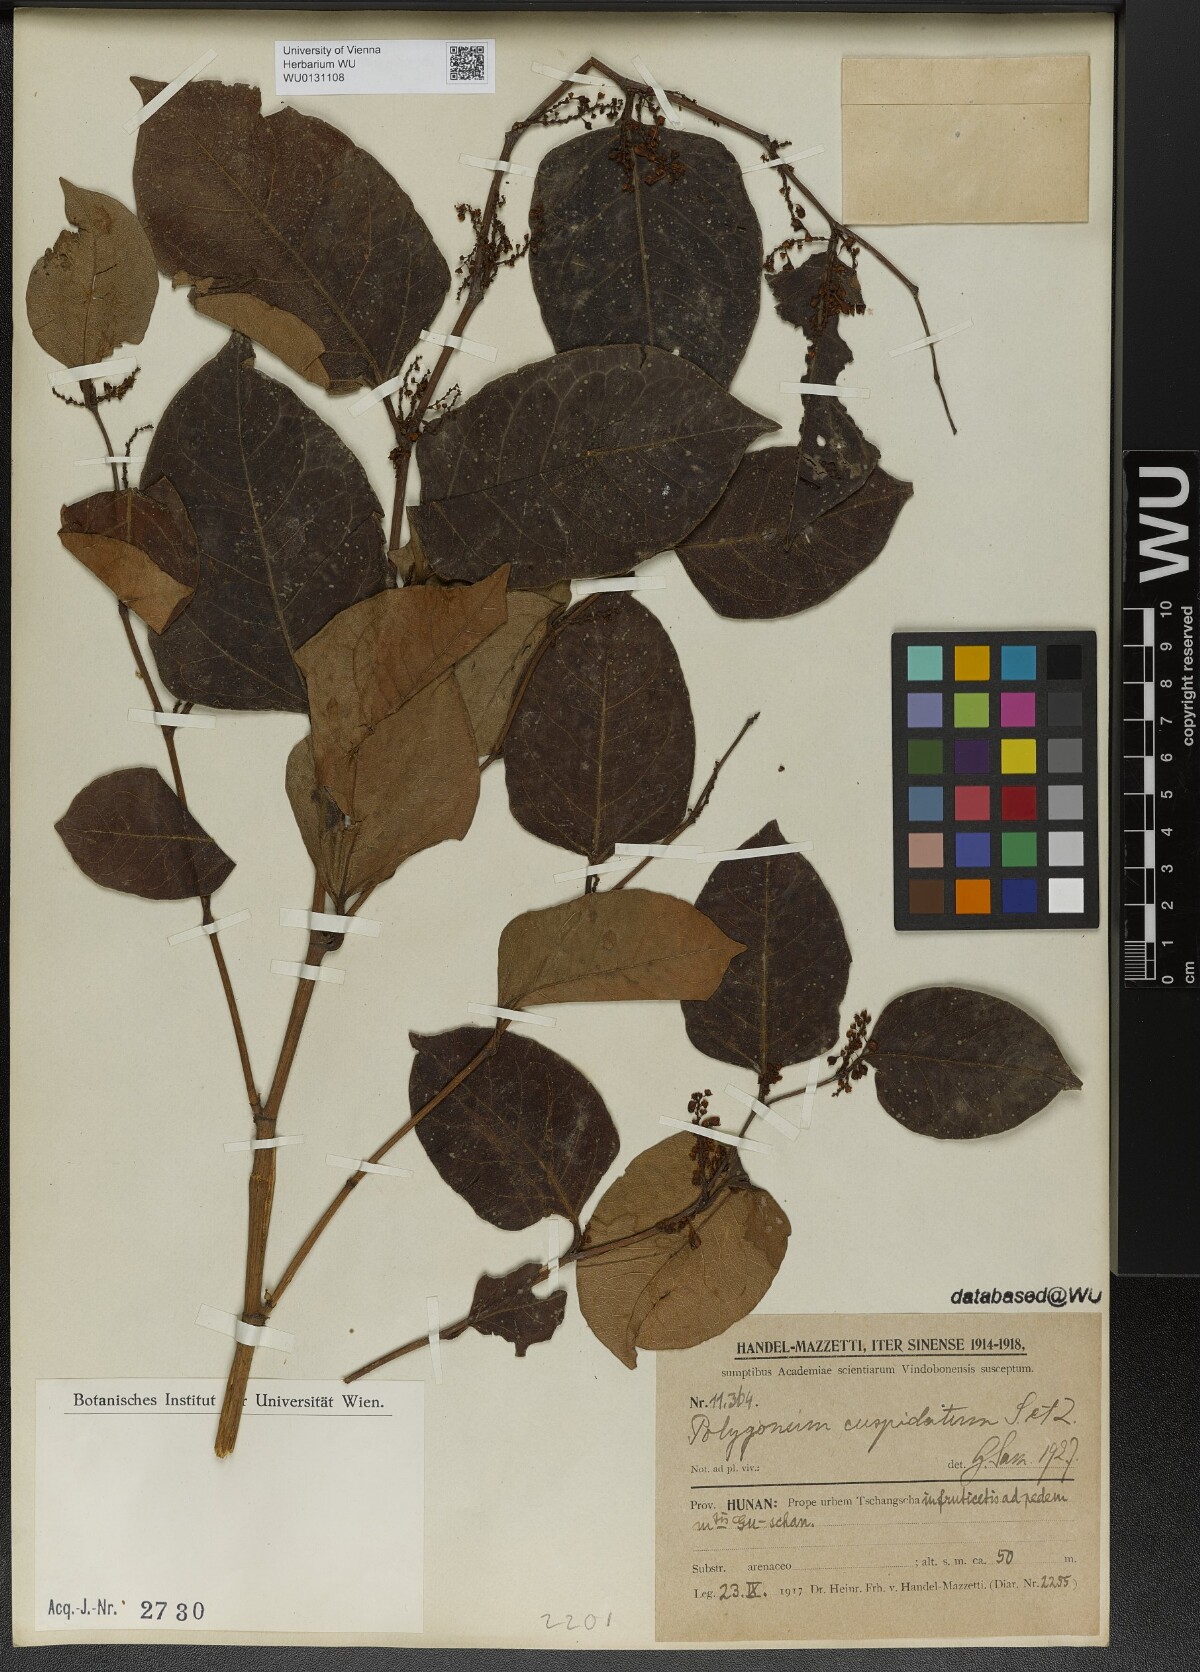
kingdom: Plantae
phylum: Tracheophyta
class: Magnoliopsida
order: Caryophyllales
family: Polygonaceae
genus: Reynoutria
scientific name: Reynoutria japonica
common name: Japanese knotweed
